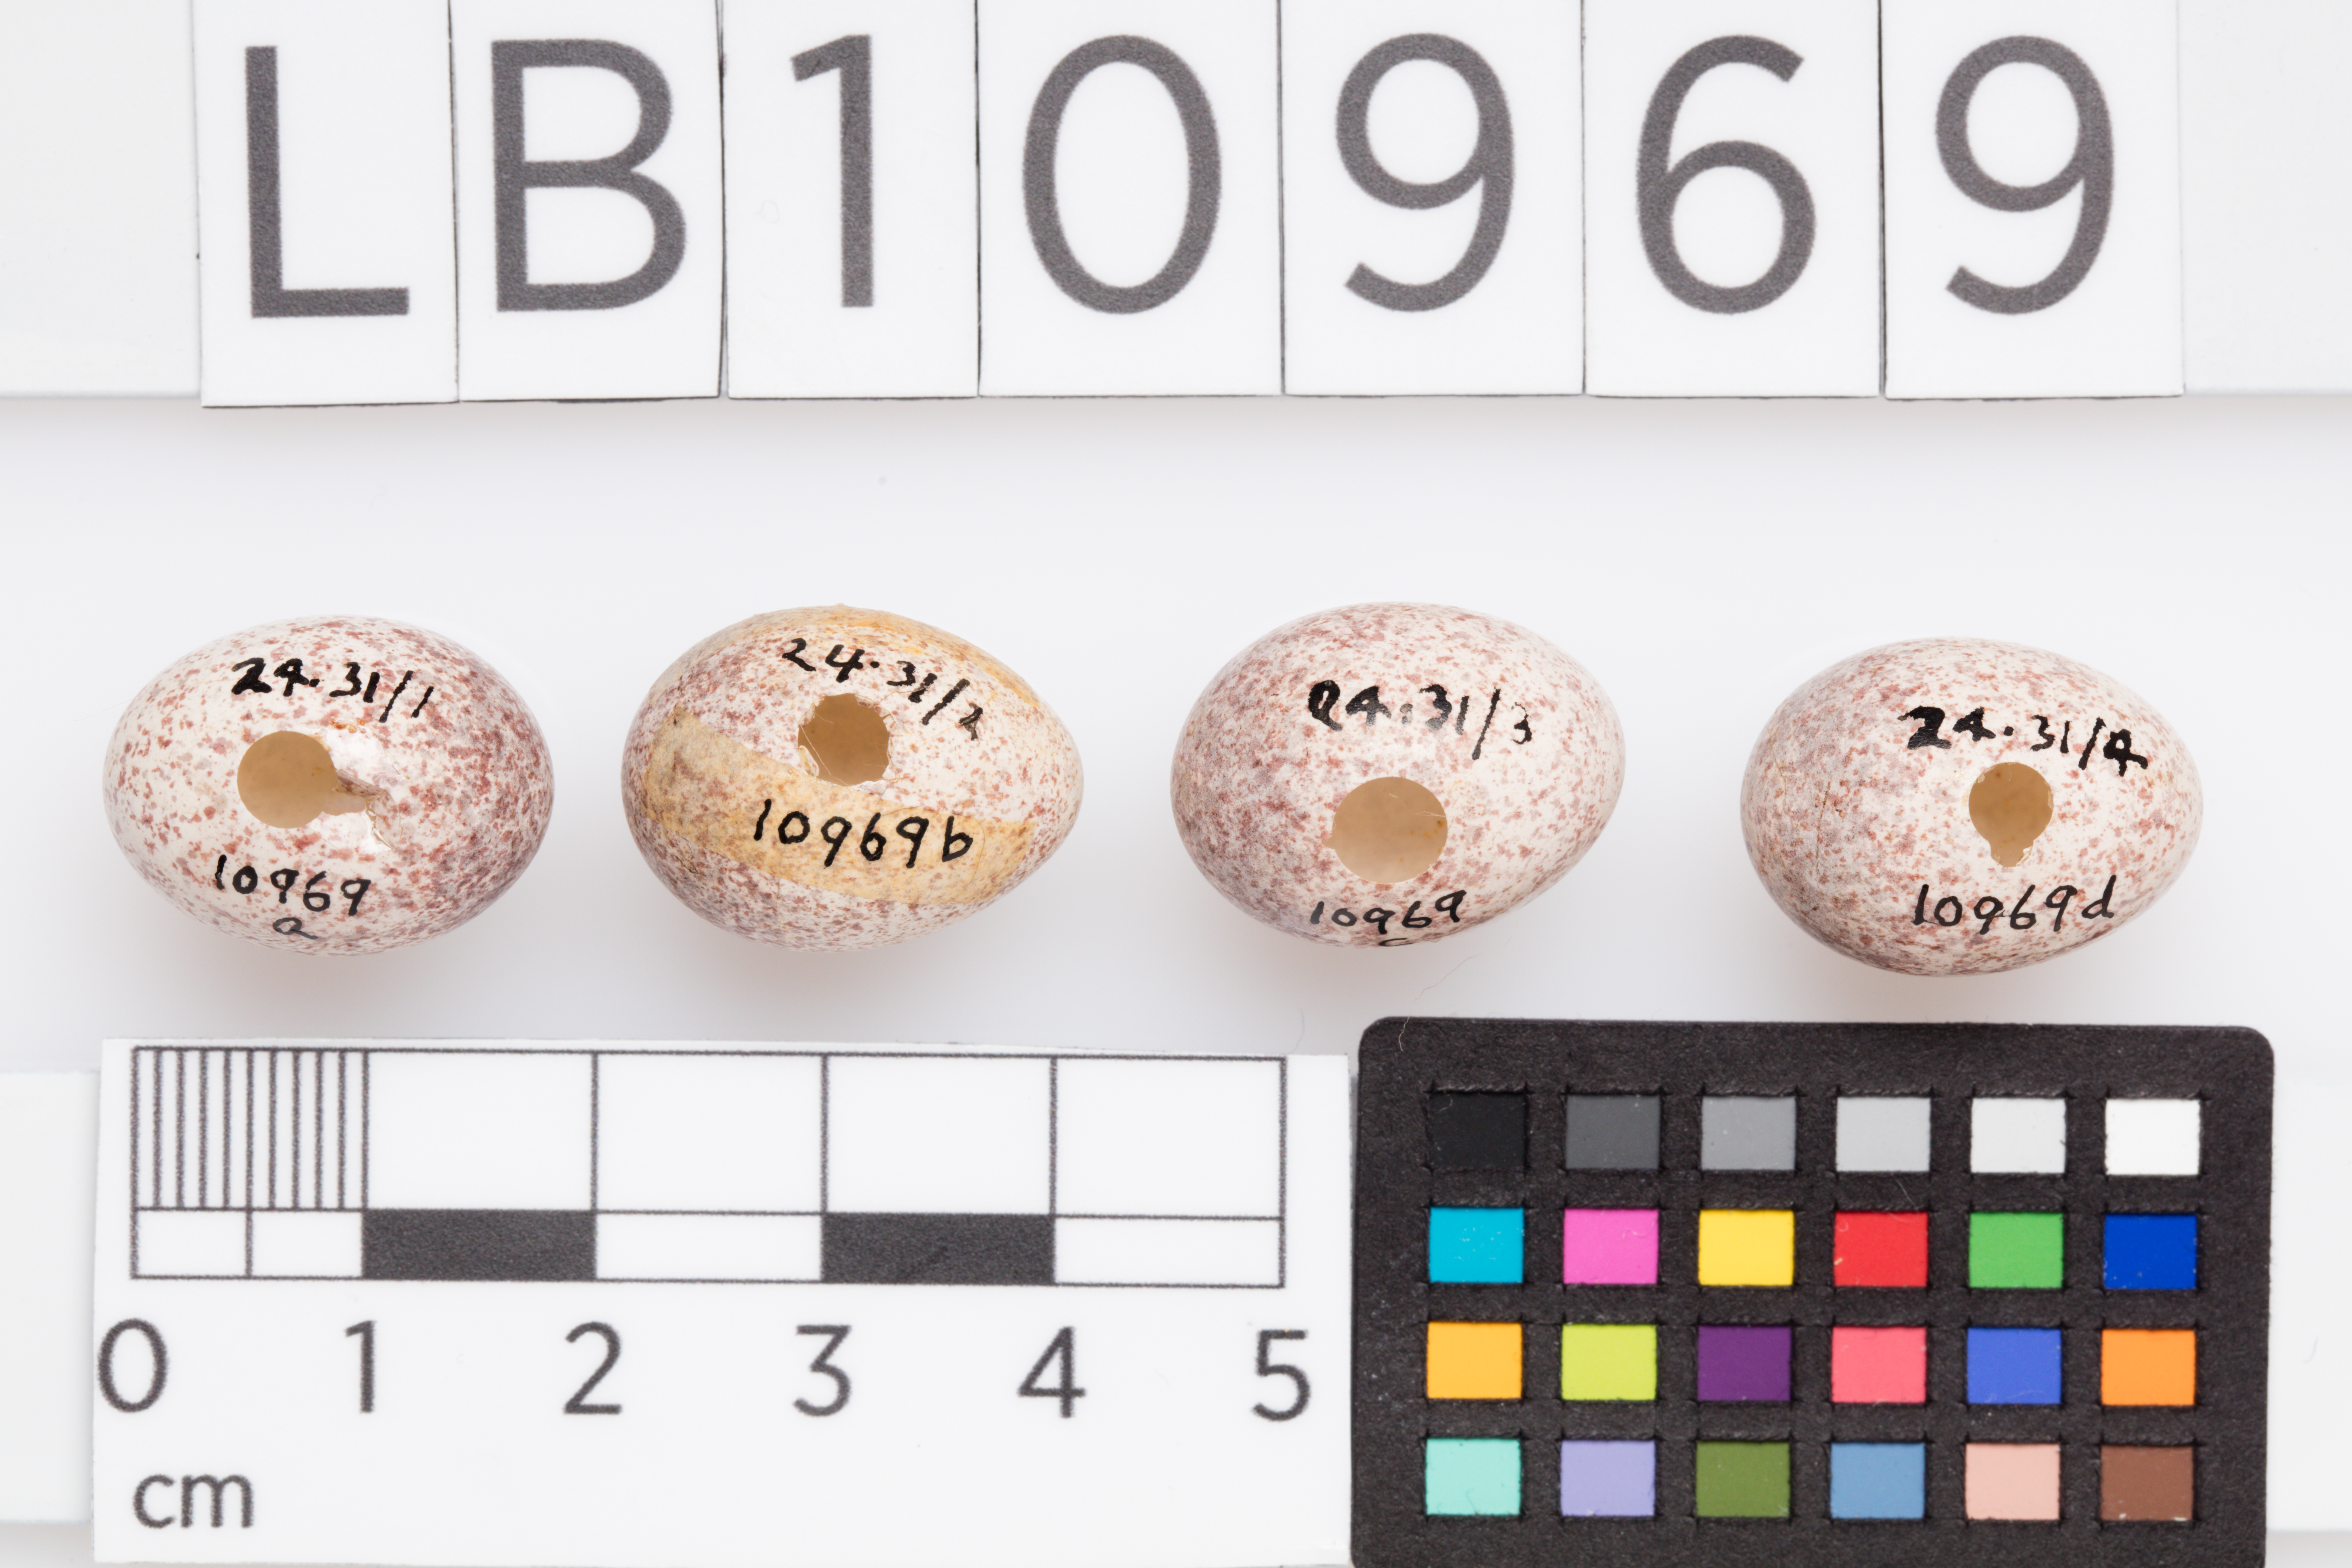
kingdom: Animalia
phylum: Chordata
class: Aves
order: Passeriformes
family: Locustellidae
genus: Megalurus
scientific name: Megalurus punctatus
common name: New zealand fernbird
